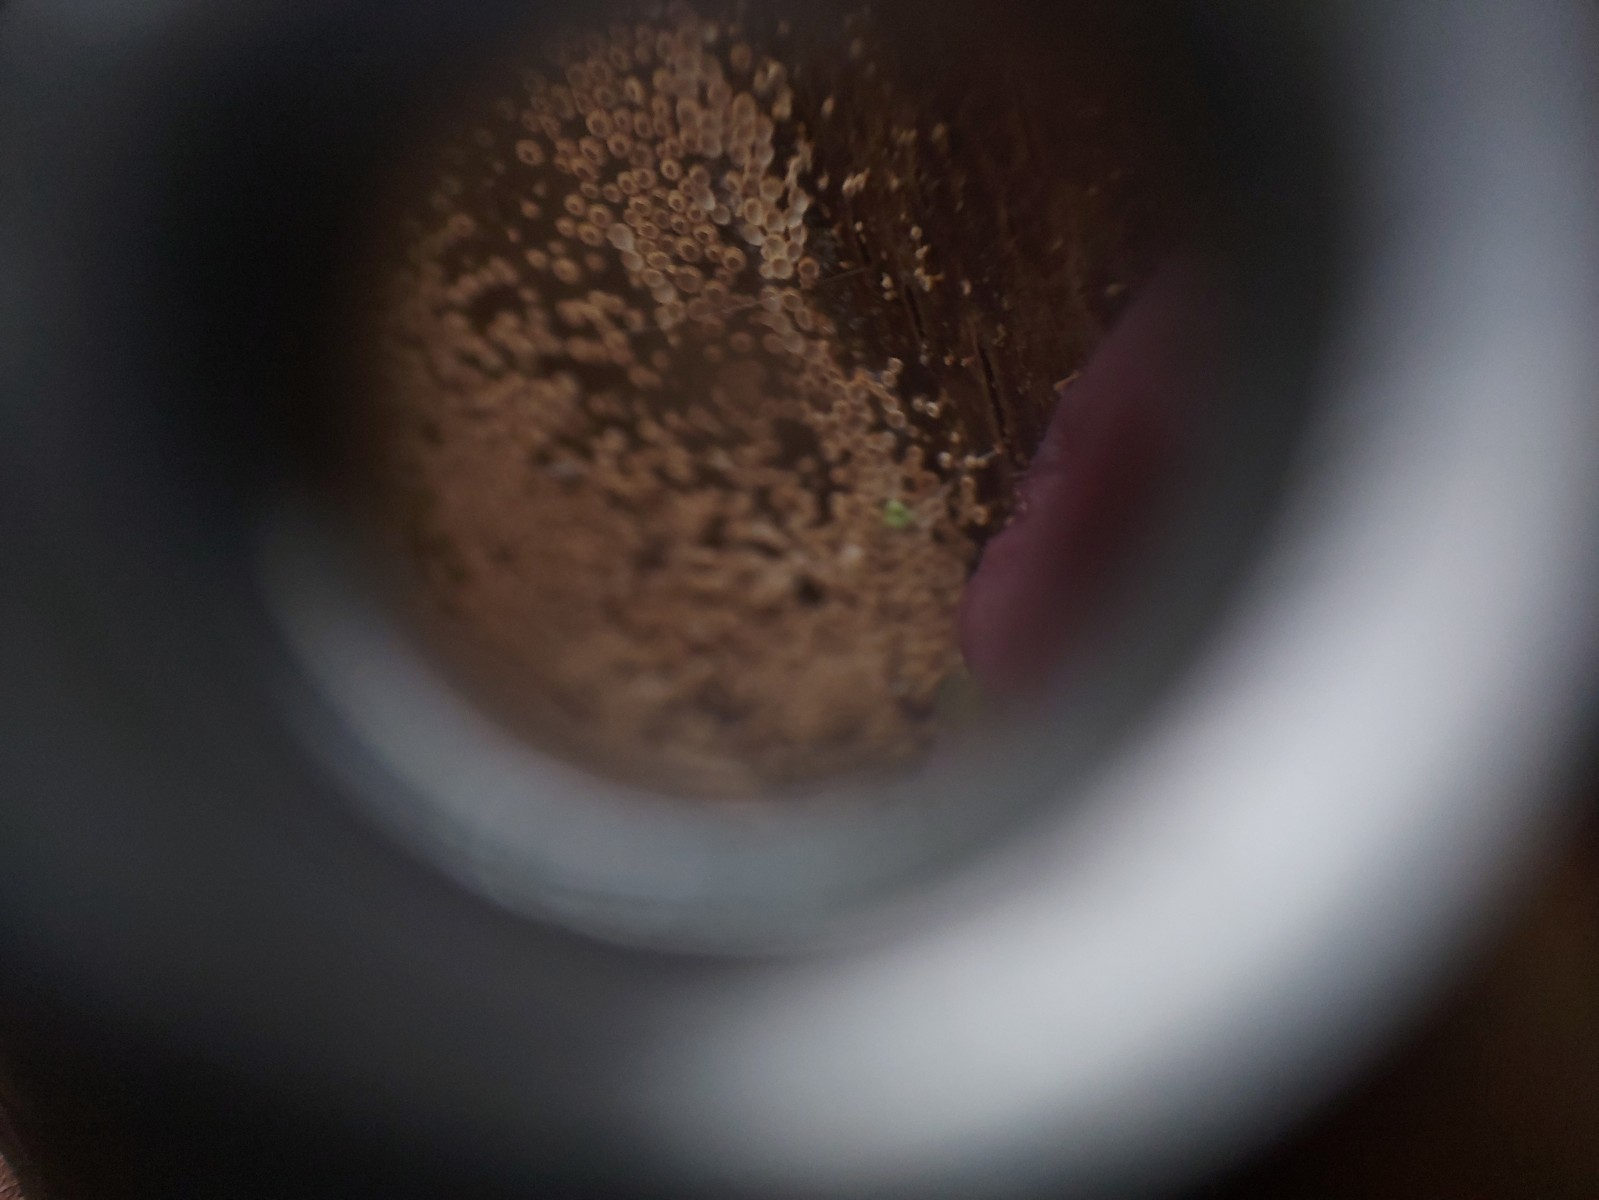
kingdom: Fungi
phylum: Basidiomycota
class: Agaricomycetes
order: Agaricales
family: Niaceae
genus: Merismodes
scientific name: Merismodes anomala
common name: almindelig læderskål
